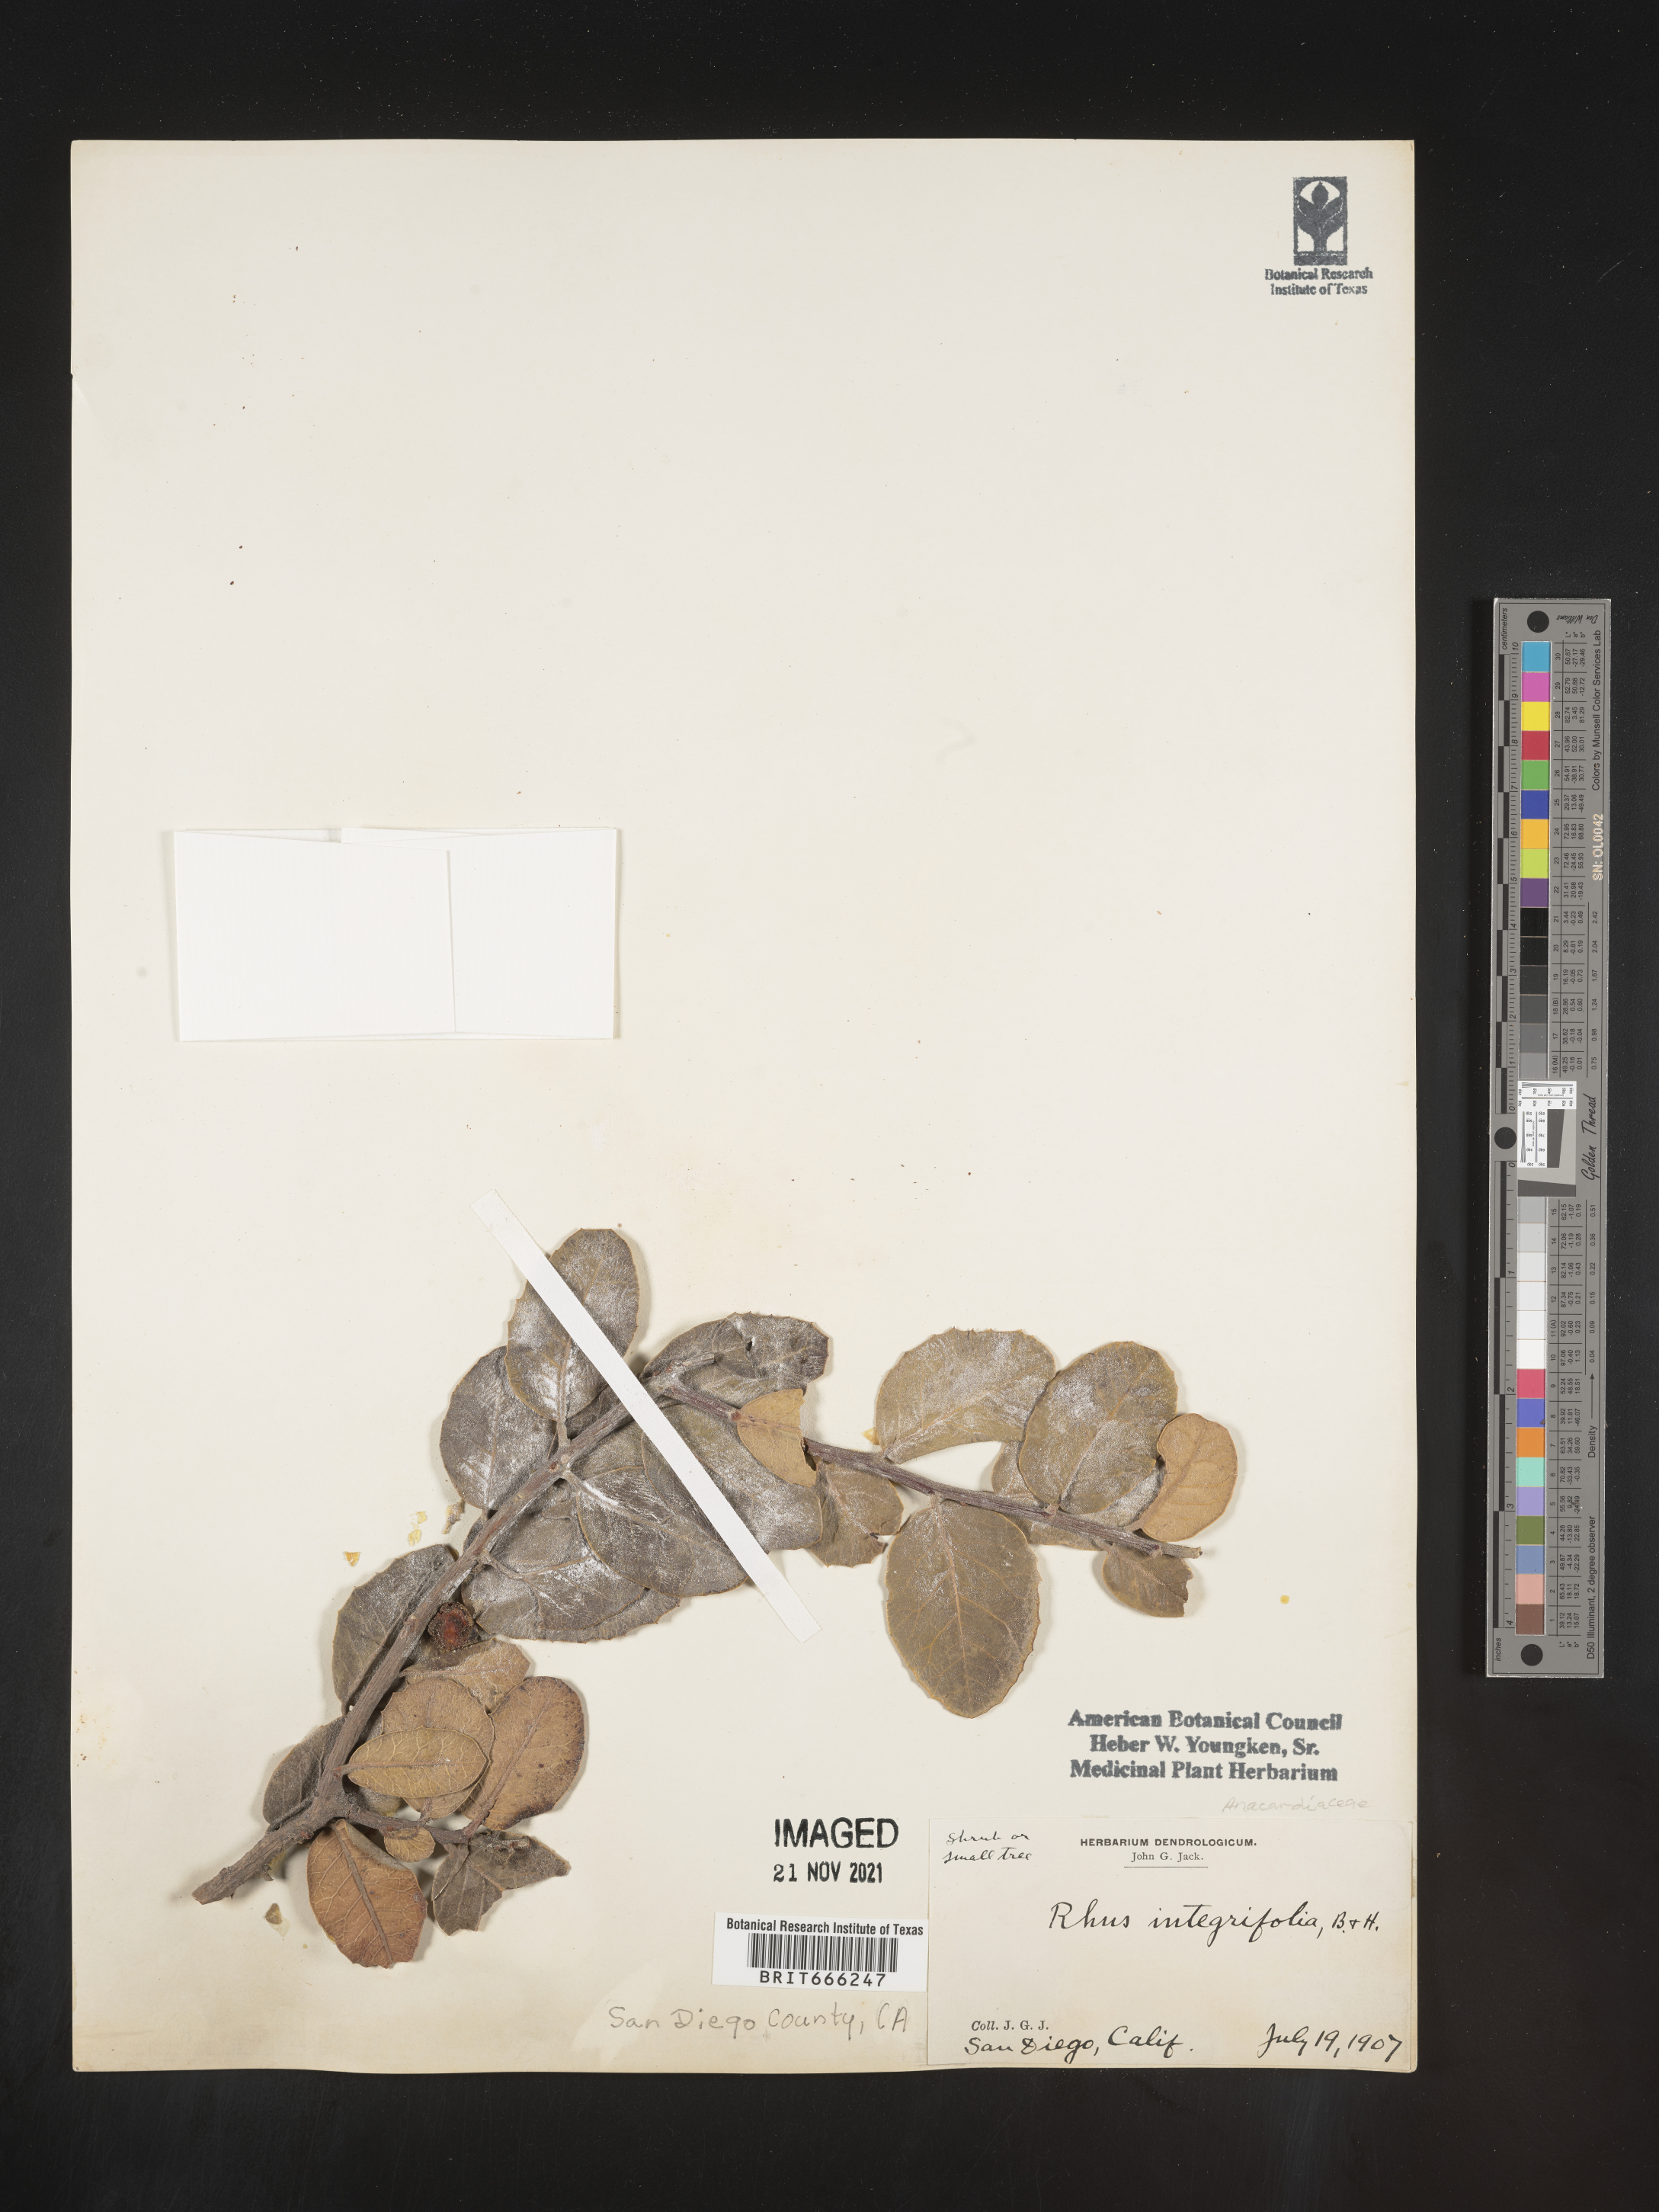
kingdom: Plantae
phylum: Tracheophyta
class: Magnoliopsida
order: Sapindales
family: Anacardiaceae
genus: Rhus
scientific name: Rhus
